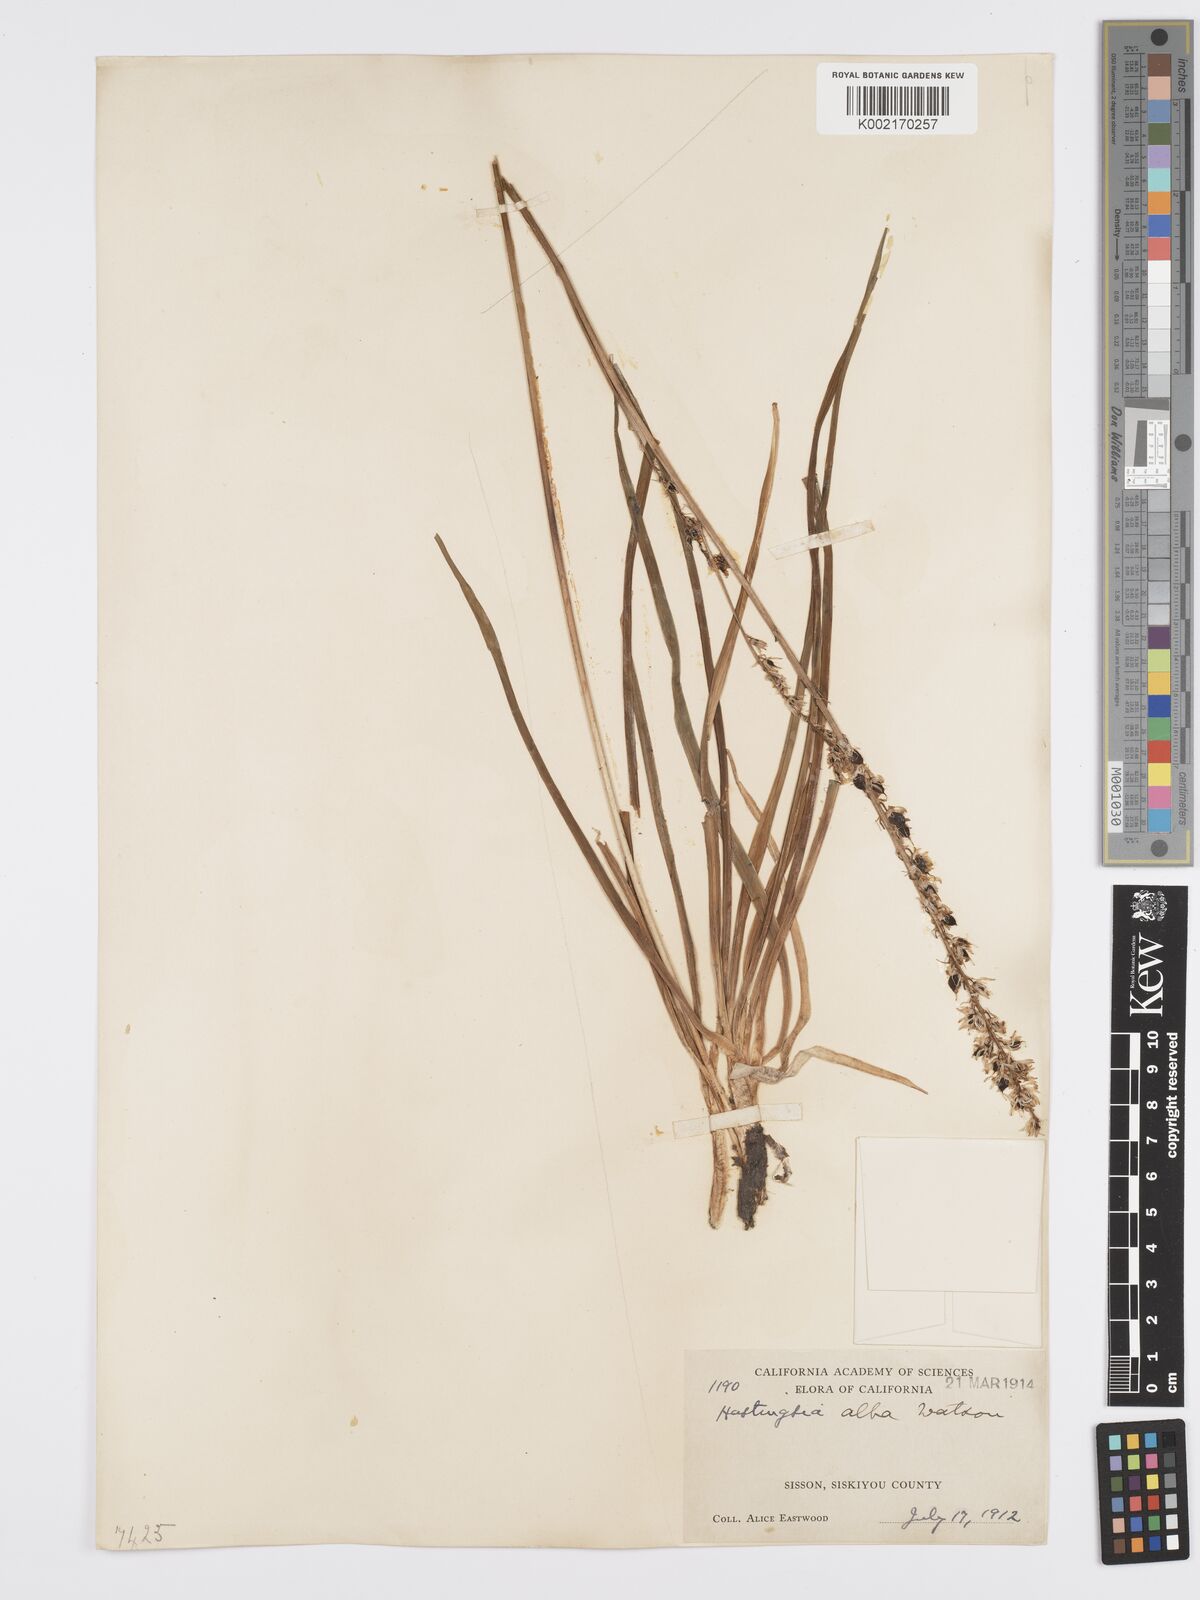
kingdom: Plantae
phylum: Tracheophyta
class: Liliopsida
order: Asparagales
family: Asparagaceae
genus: Hastingsia
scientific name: Hastingsia alba
